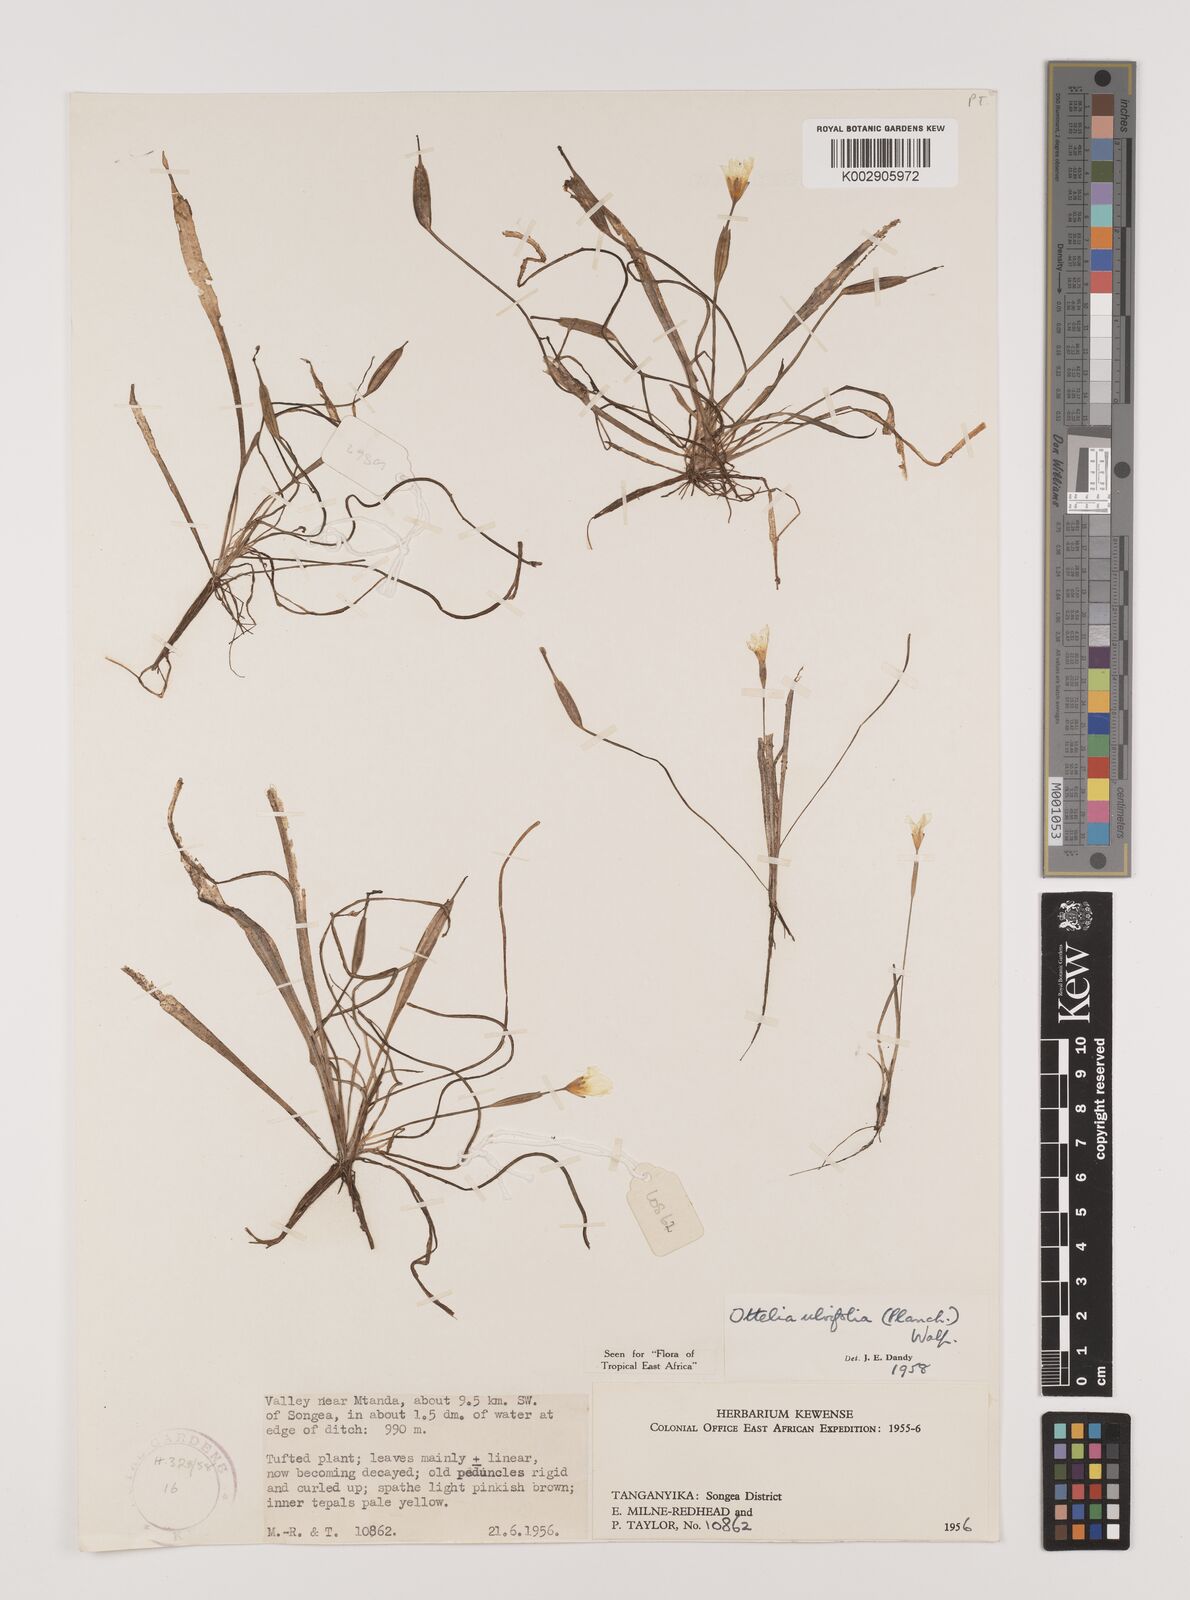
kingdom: Plantae
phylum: Tracheophyta
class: Liliopsida
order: Alismatales
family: Hydrocharitaceae
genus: Ottelia
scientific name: Ottelia ulvifolia
